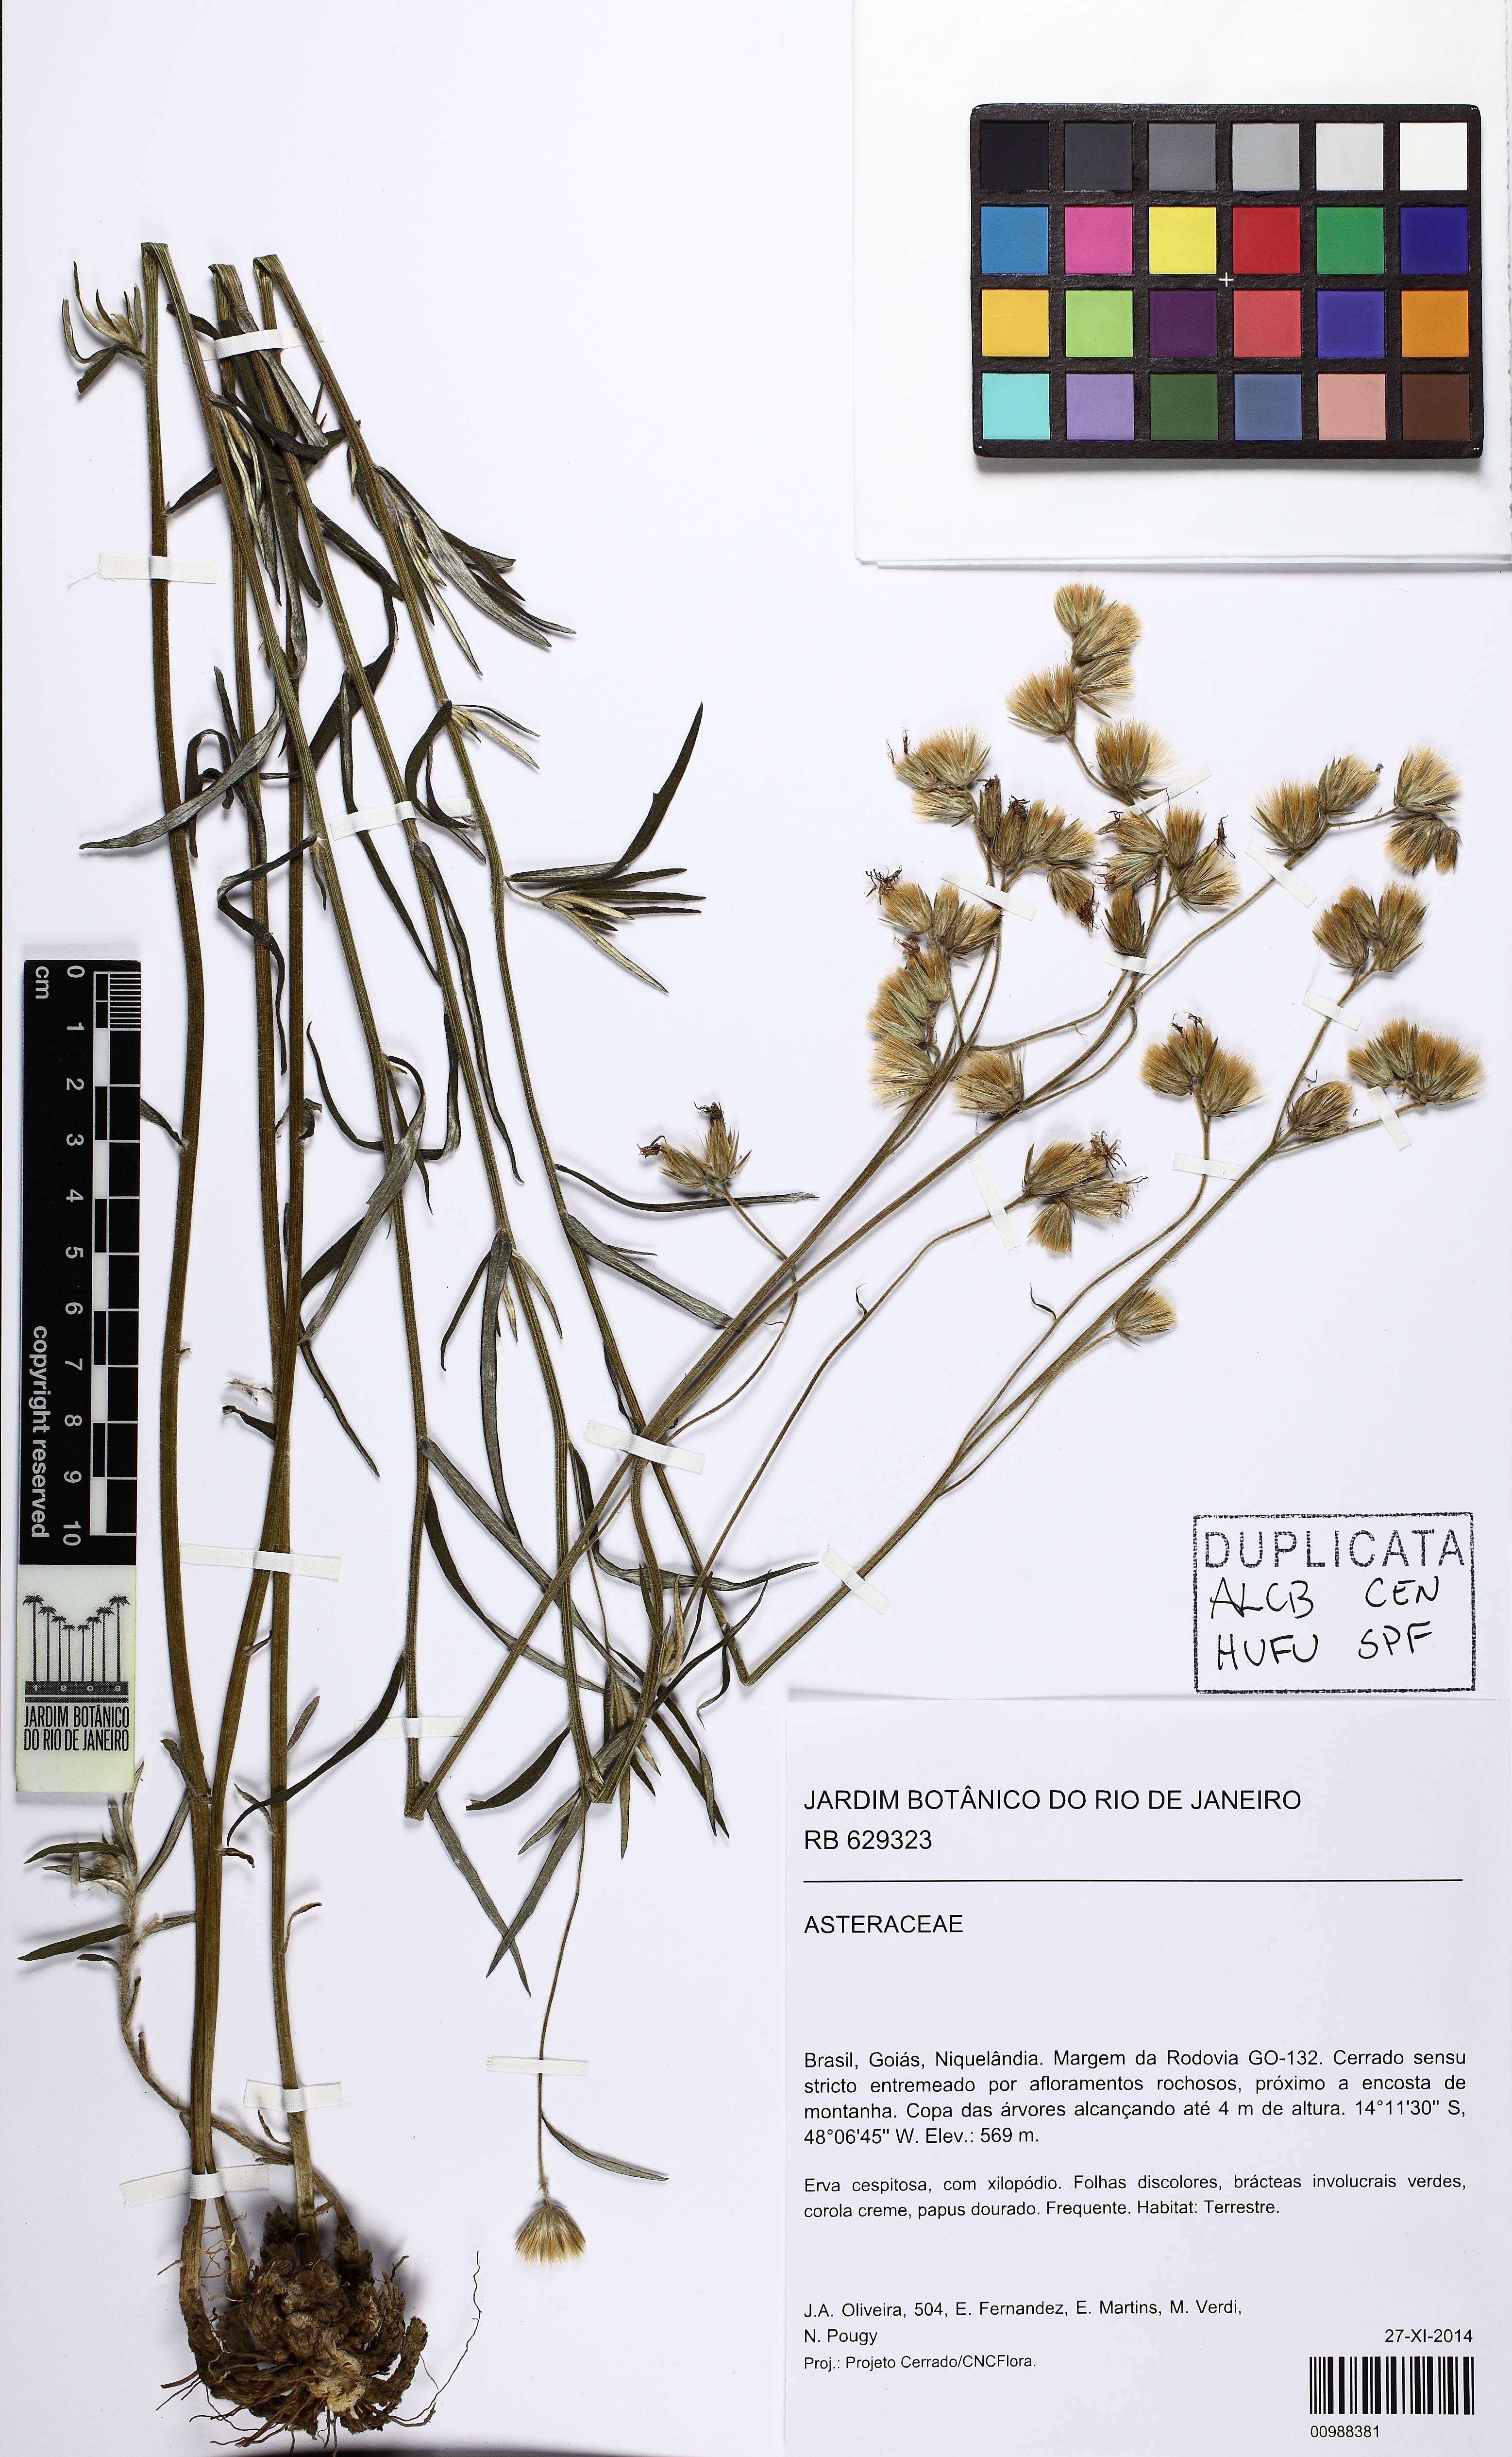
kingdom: Plantae
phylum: Tracheophyta
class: Magnoliopsida
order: Asterales
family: Asteraceae
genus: Chrysolaena
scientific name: Chrysolaena
